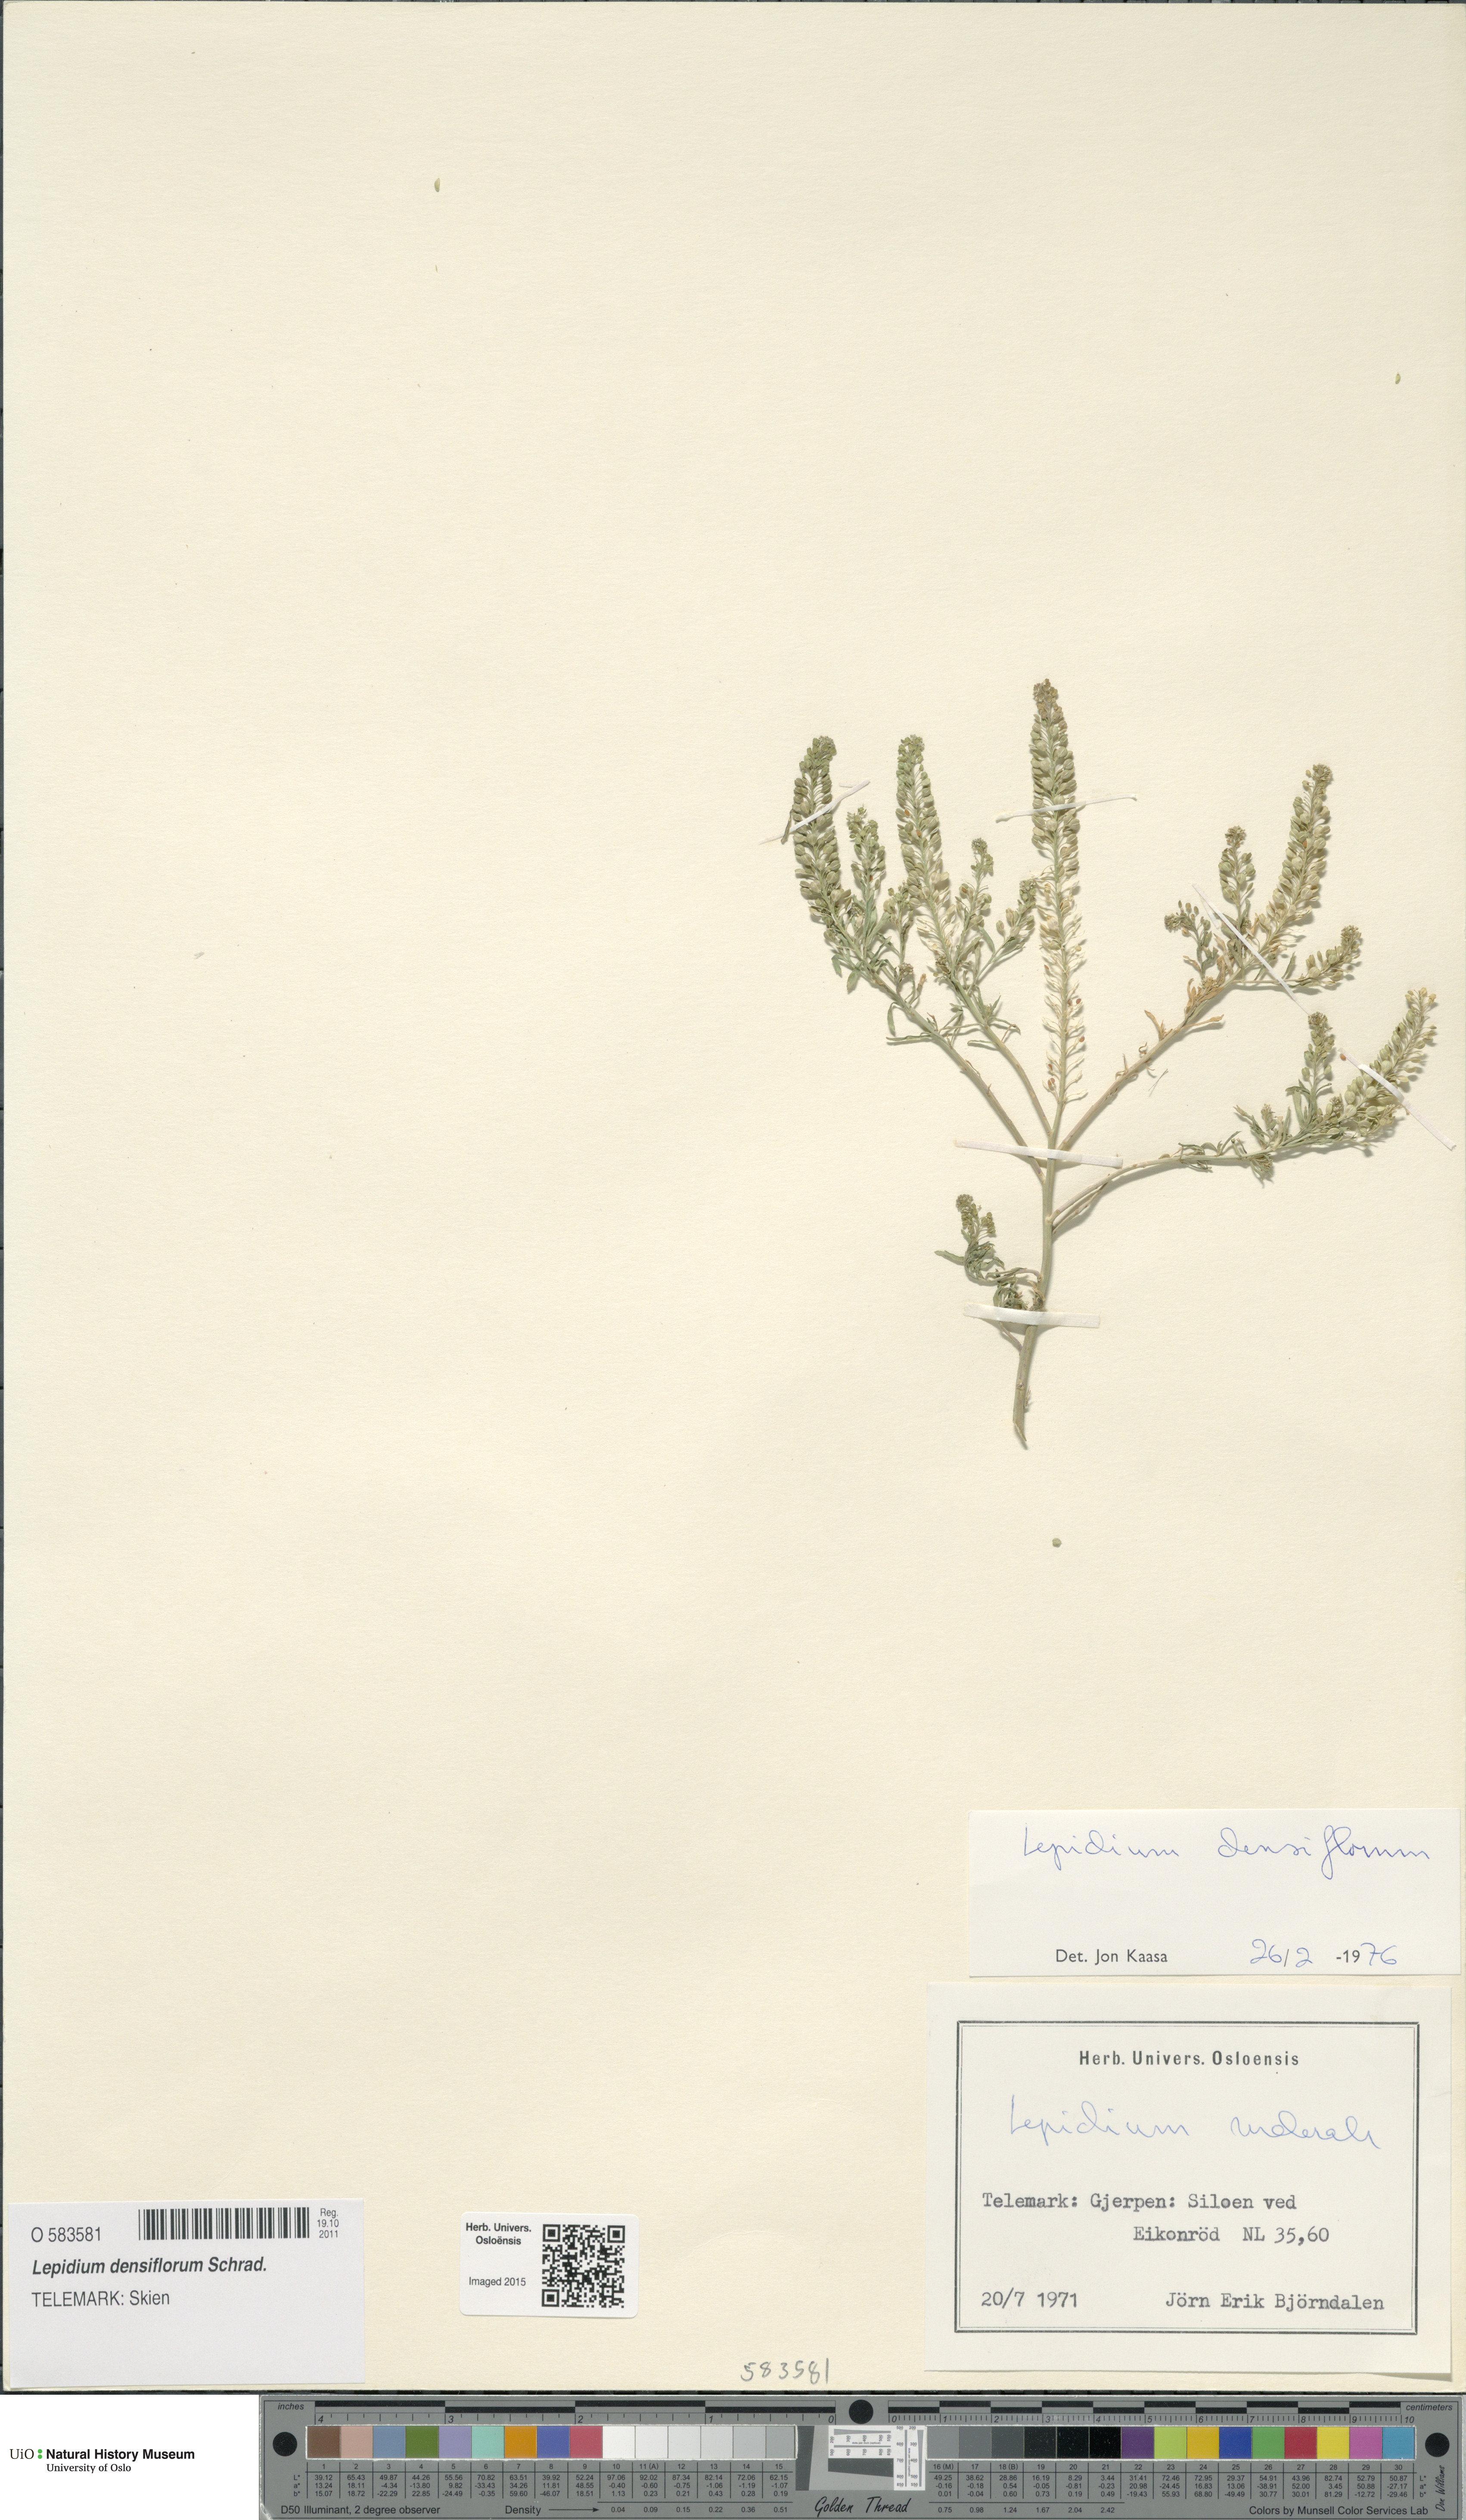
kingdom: Plantae
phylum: Tracheophyta
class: Magnoliopsida
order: Brassicales
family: Brassicaceae
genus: Lepidium
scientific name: Lepidium densiflorum
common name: Miner's pepperwort
